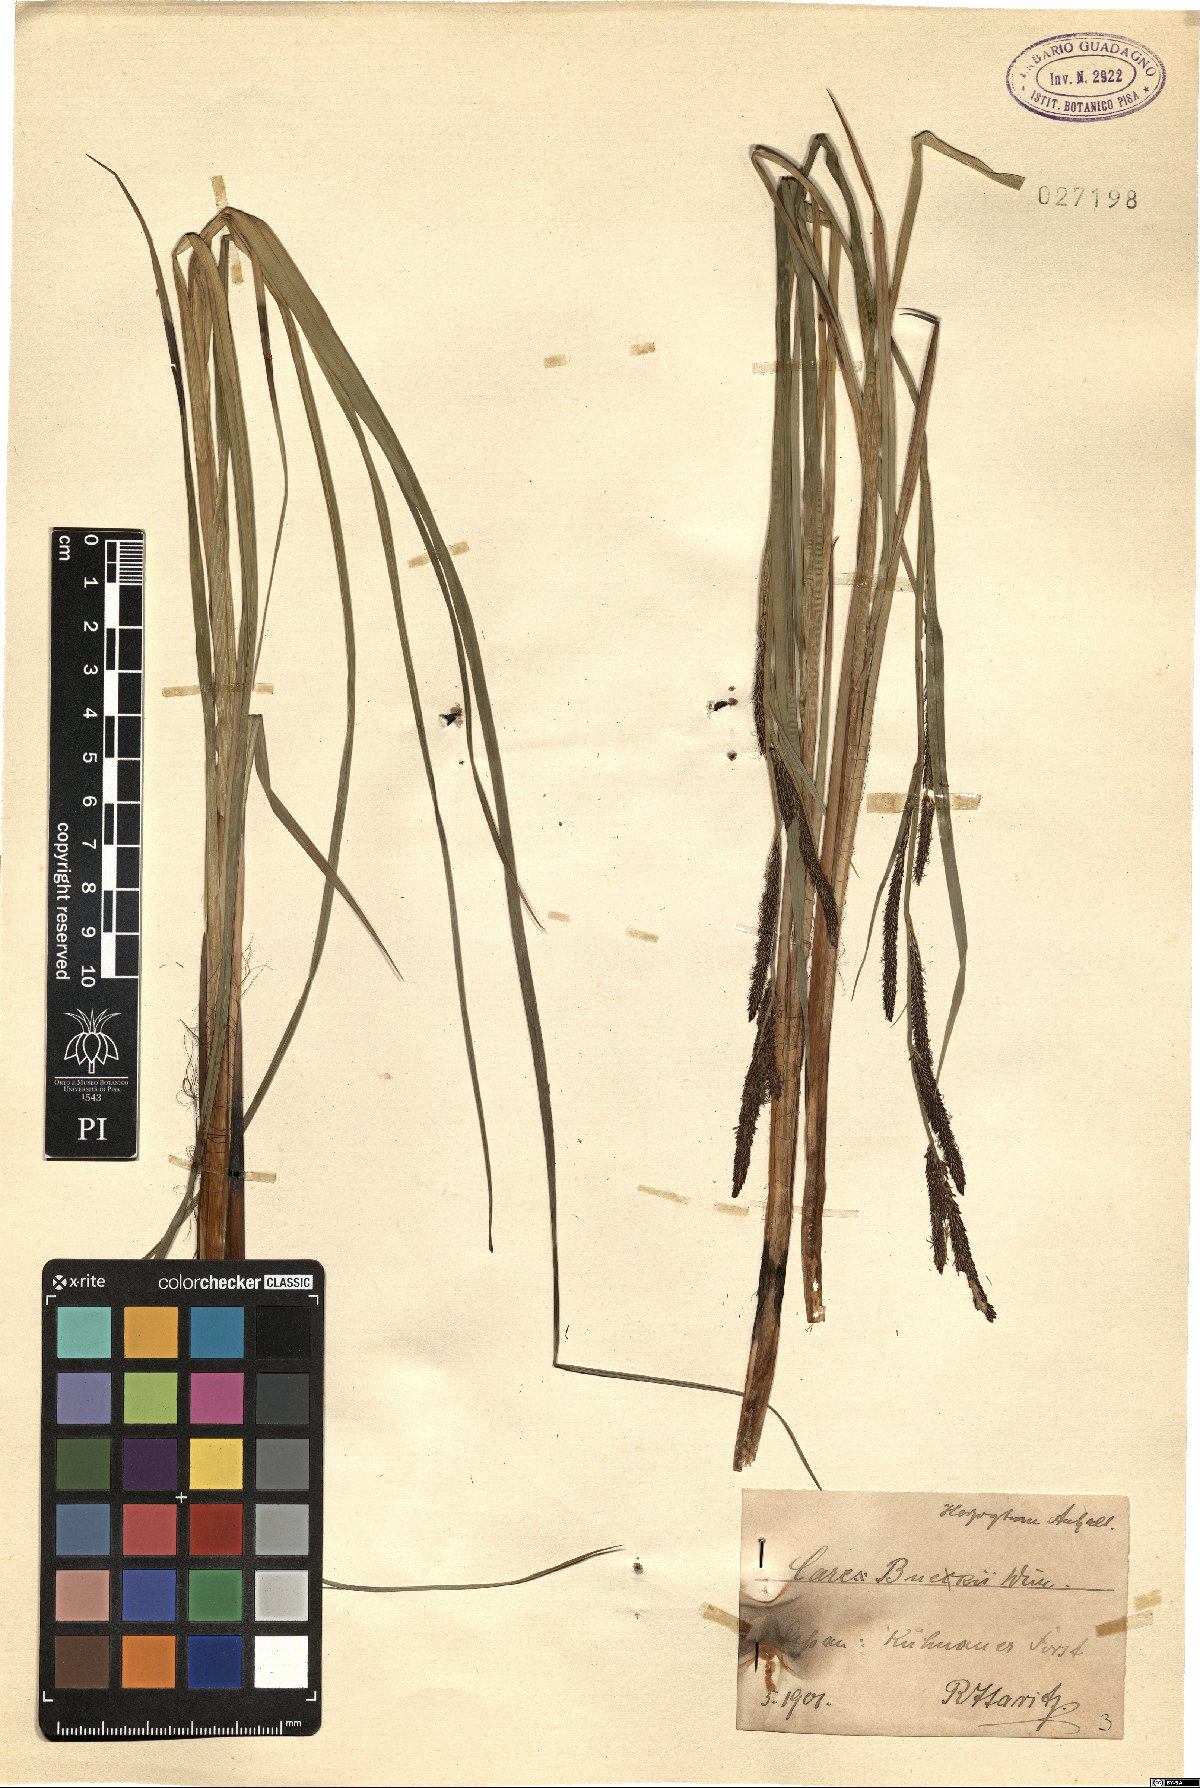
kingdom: Plantae
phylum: Tracheophyta
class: Liliopsida
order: Poales
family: Cyperaceae
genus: Carex
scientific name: Carex buekii
